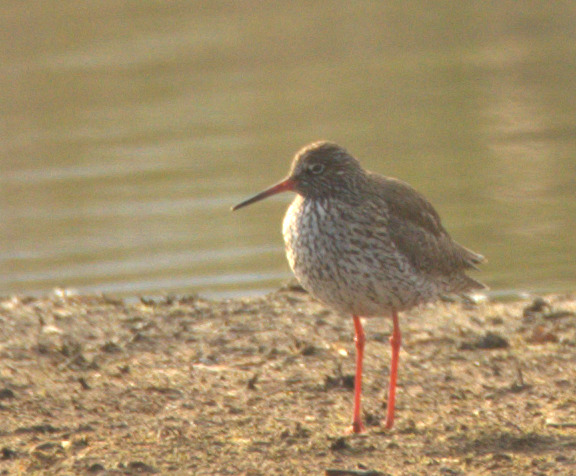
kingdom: Animalia
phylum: Chordata
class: Aves
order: Charadriiformes
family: Scolopacidae
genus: Tringa
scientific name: Tringa totanus
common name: Rødben
